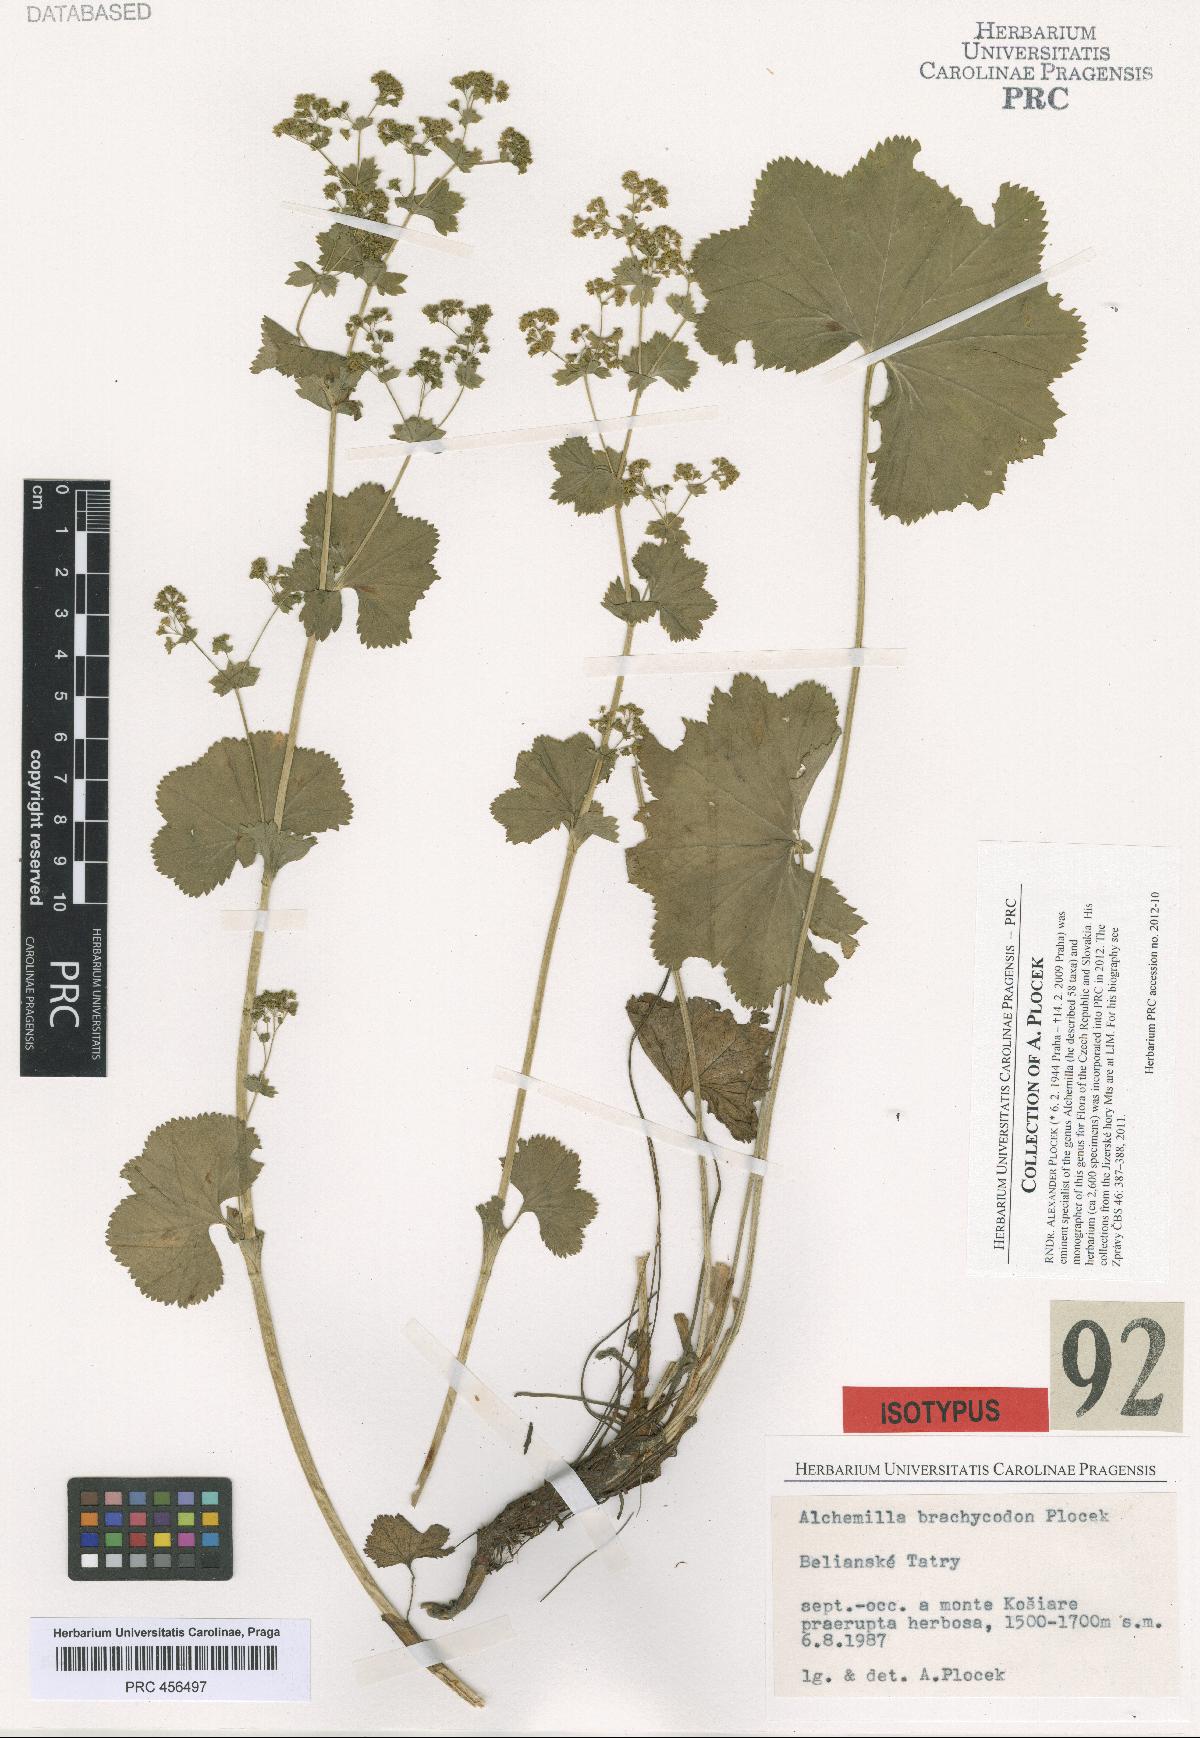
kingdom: Plantae
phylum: Tracheophyta
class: Magnoliopsida
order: Rosales
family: Rosaceae
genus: Alchemilla
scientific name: Alchemilla brachycodon
